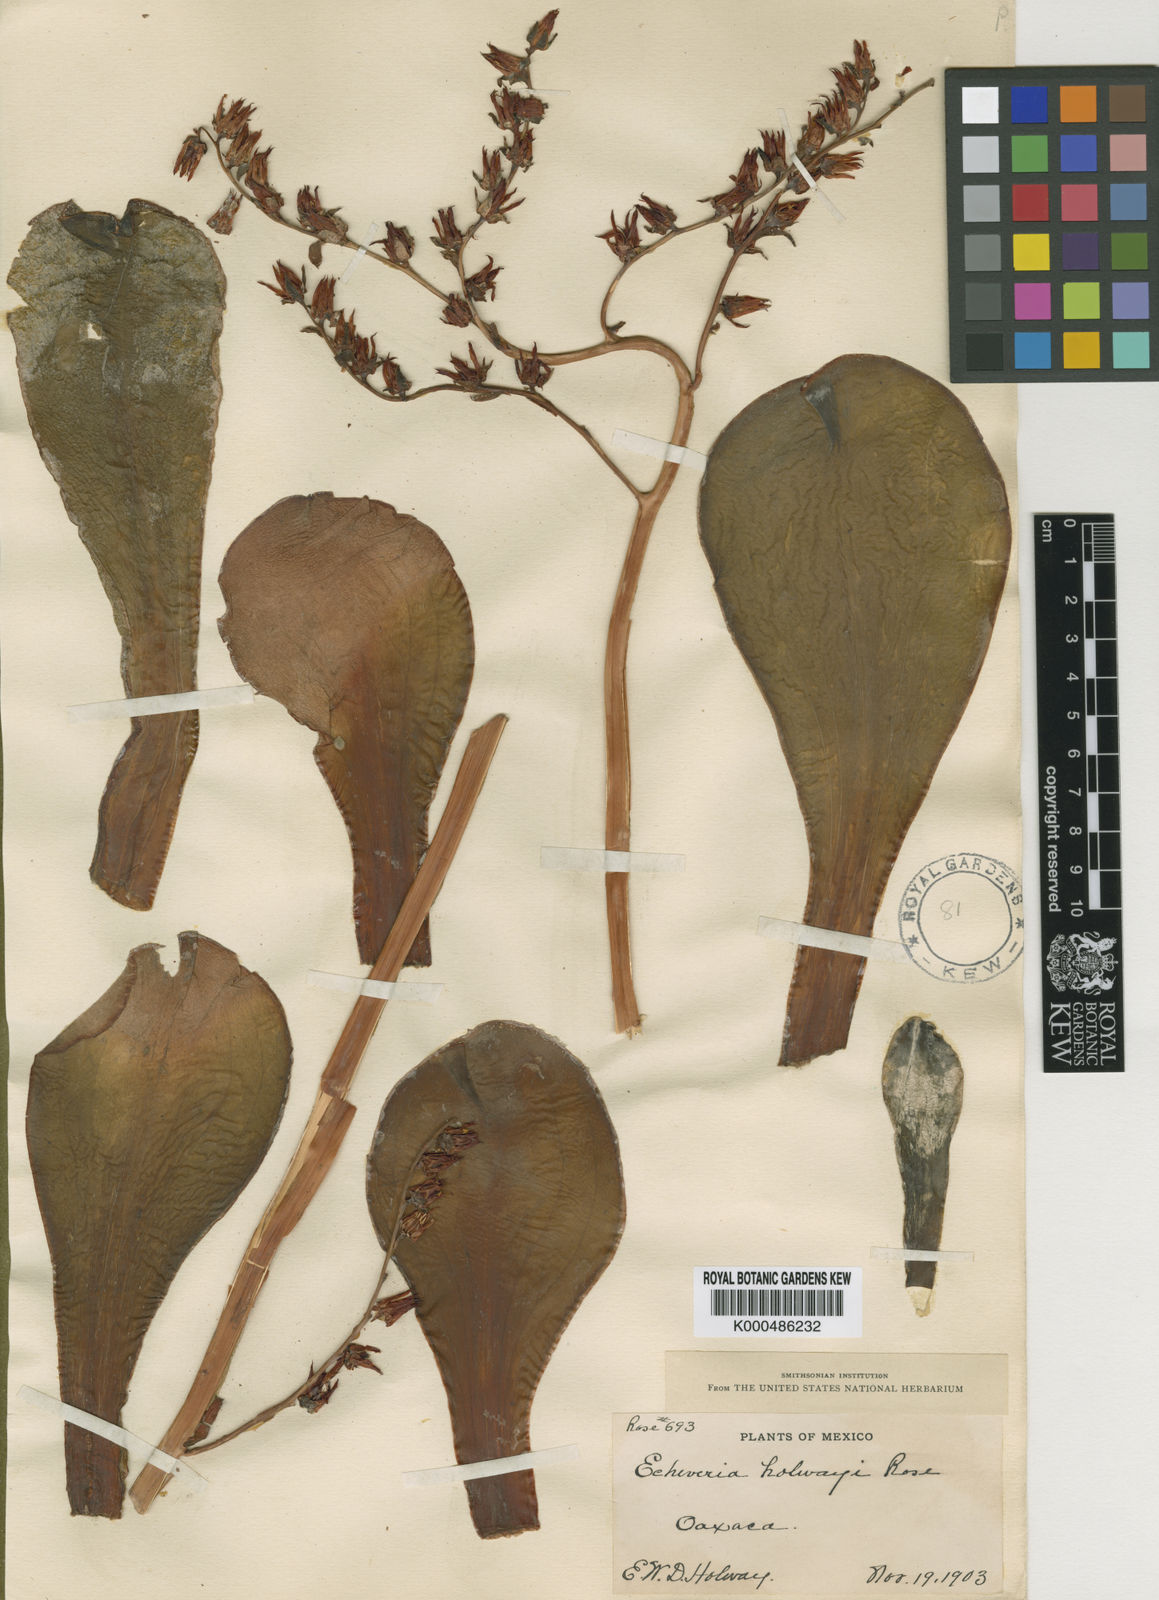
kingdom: Plantae
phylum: Tracheophyta
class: Magnoliopsida
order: Saxifragales
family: Crassulaceae
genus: Echeveria
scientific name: Echeveria acutifolia
